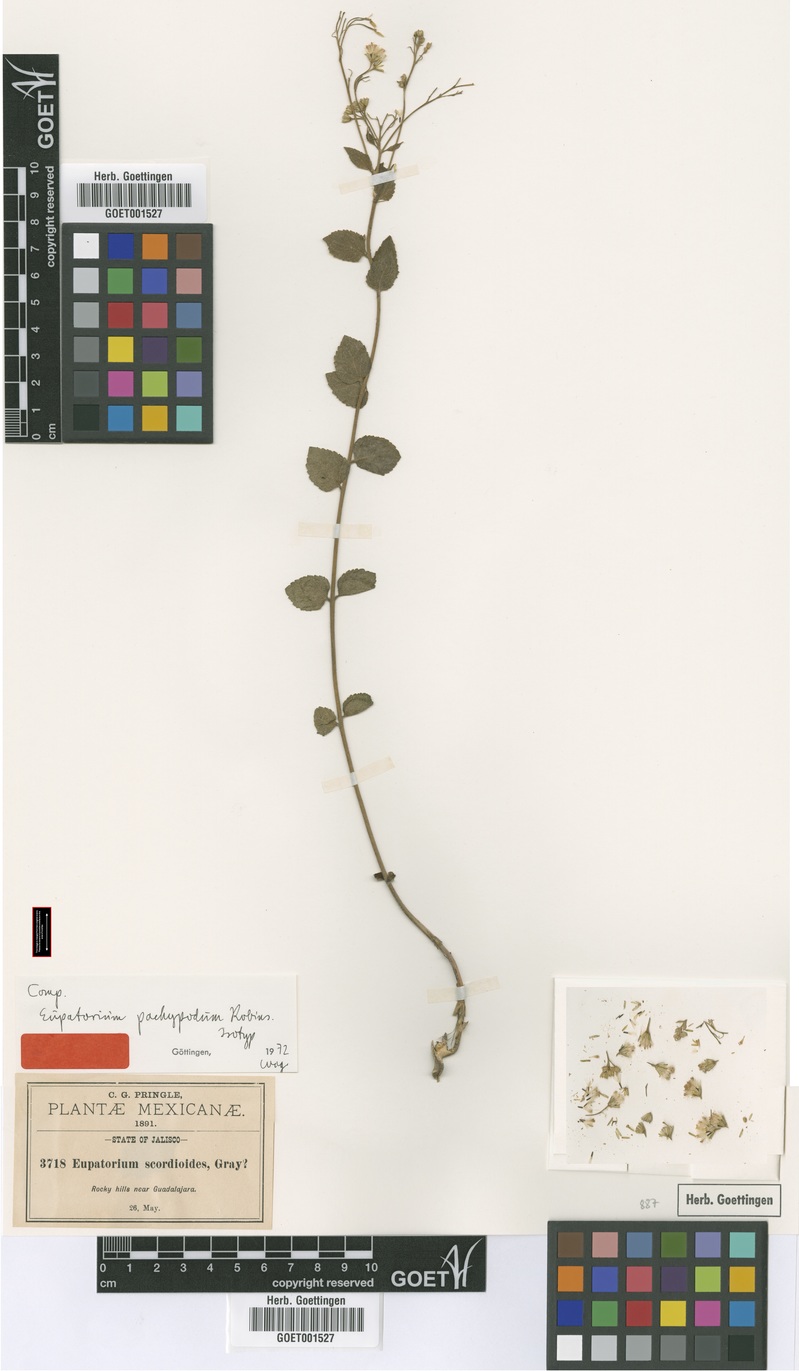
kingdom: Plantae
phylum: Tracheophyta
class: Magnoliopsida
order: Asterales
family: Asteraceae
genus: Ageratina
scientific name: Ageratina leptodictyon
